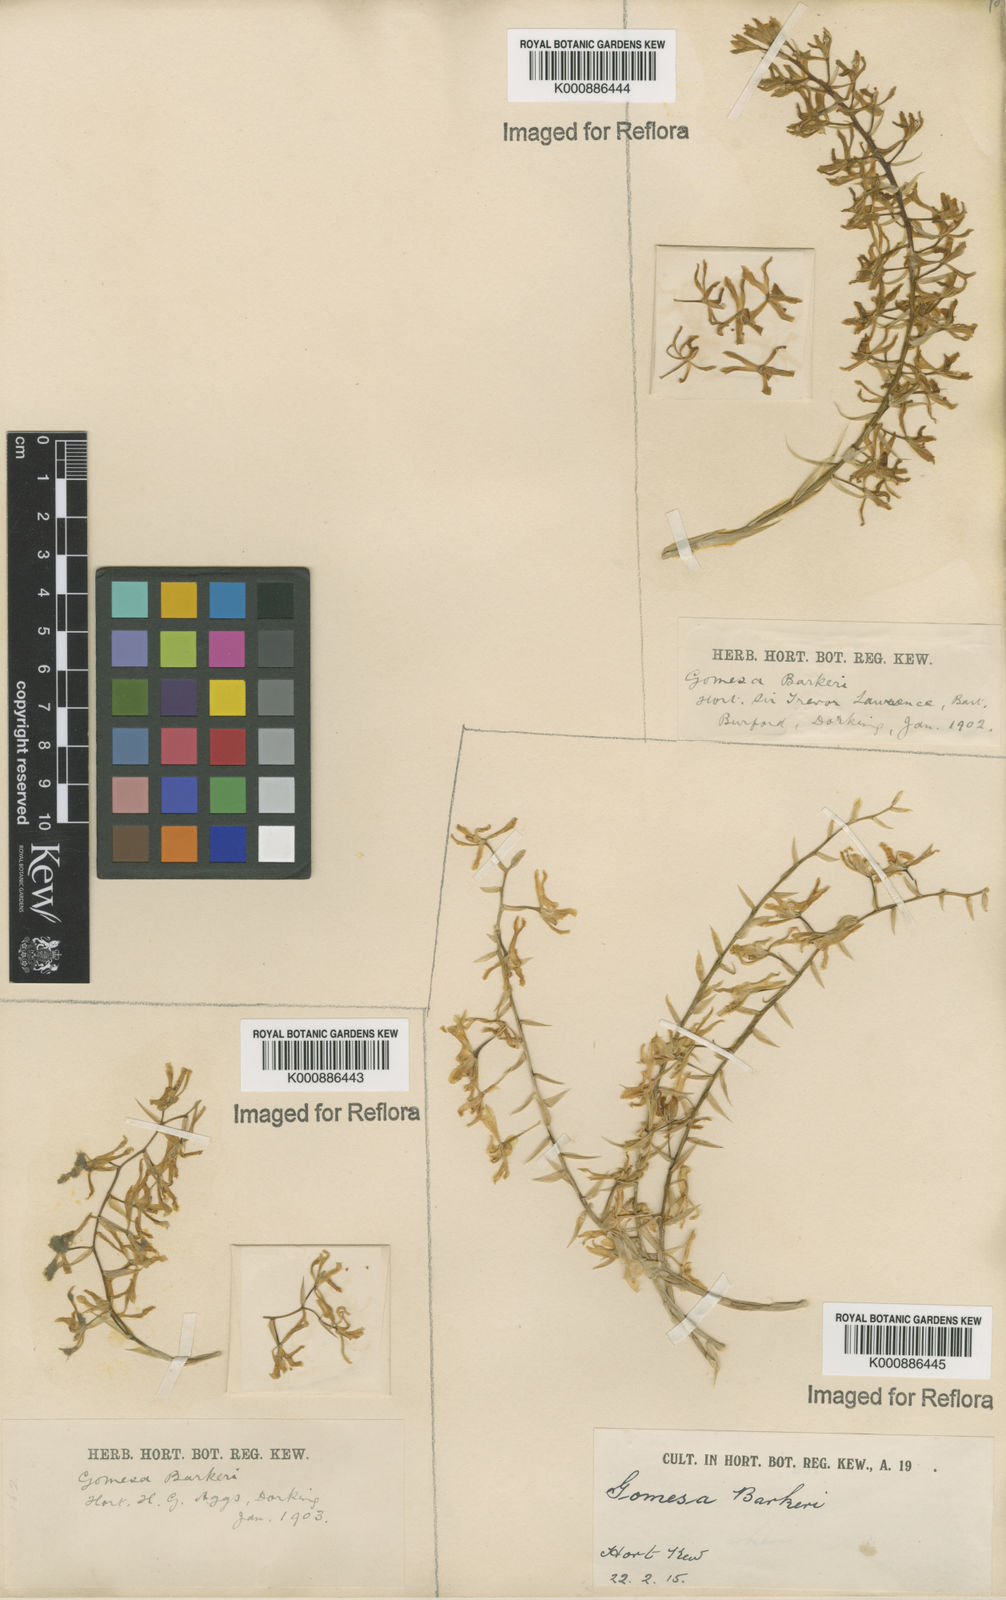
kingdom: Plantae
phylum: Tracheophyta
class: Liliopsida
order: Asparagales
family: Orchidaceae
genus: Gomesa
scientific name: Gomesa recurva
